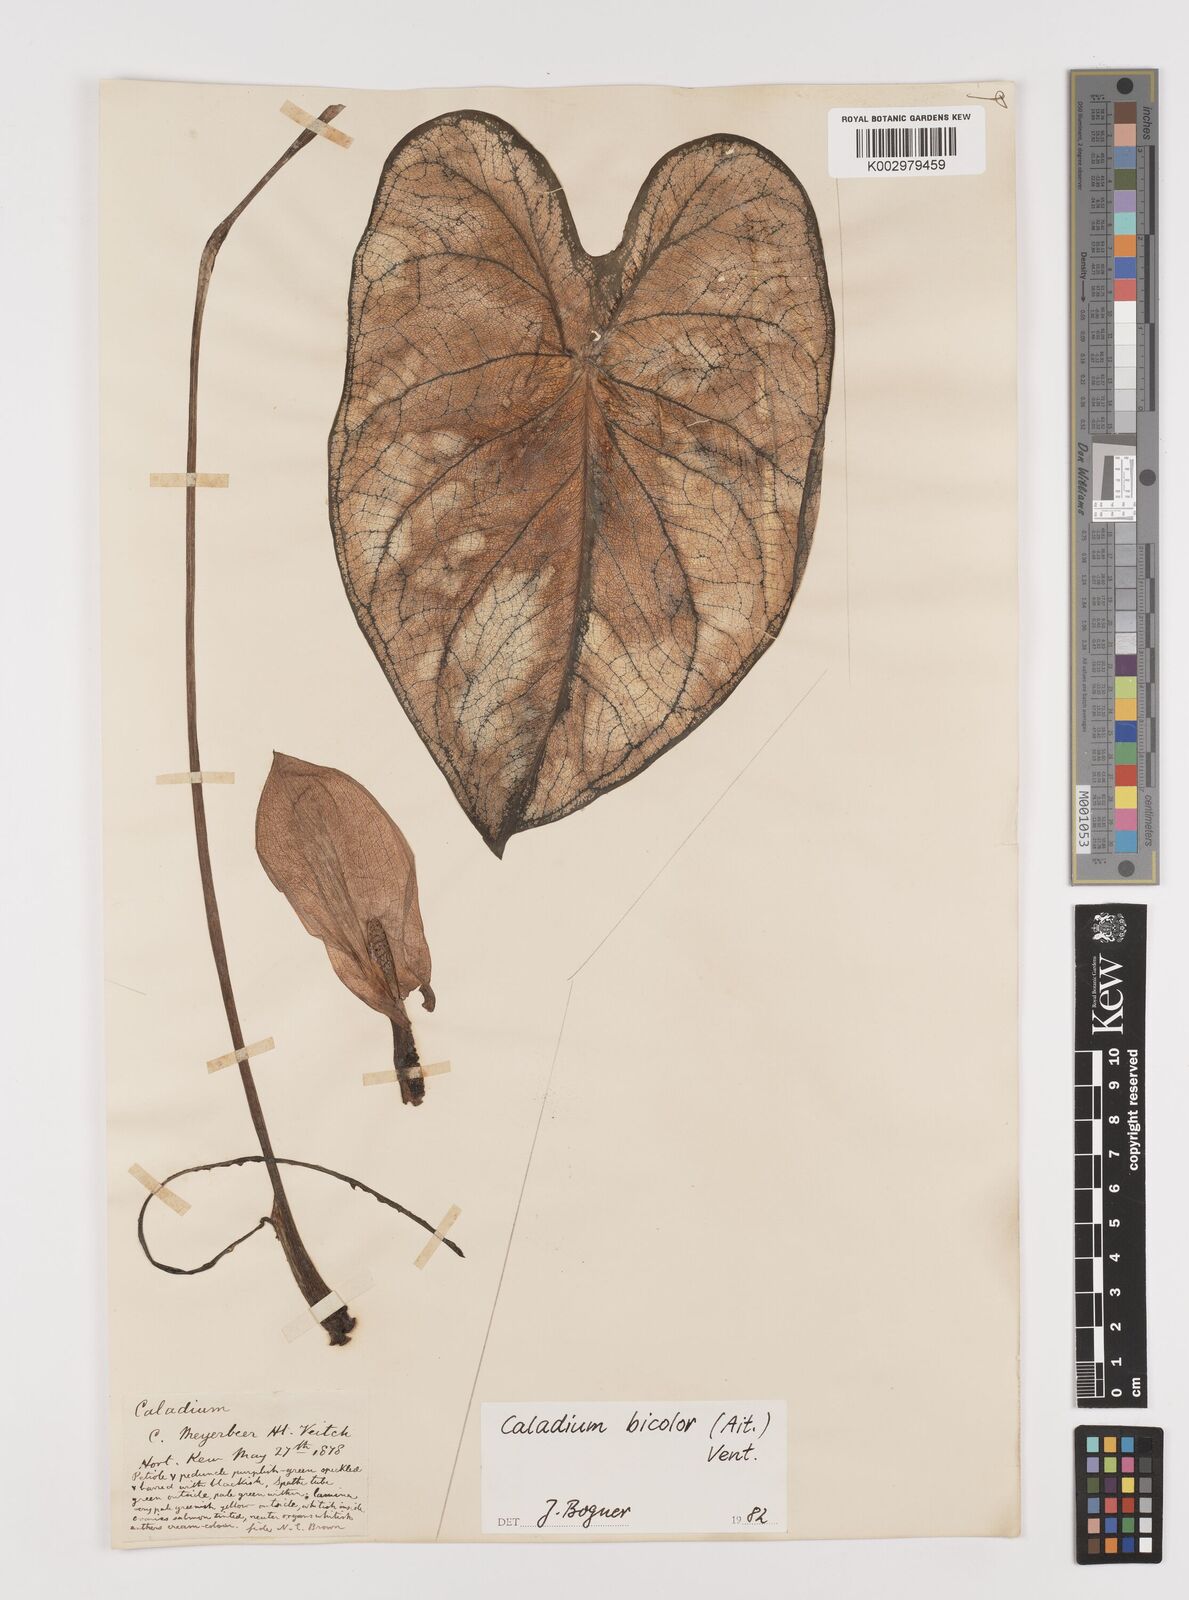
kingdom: Plantae
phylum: Tracheophyta
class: Liliopsida
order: Alismatales
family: Araceae
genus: Caladium
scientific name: Caladium bicolor
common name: Artist's pallet
